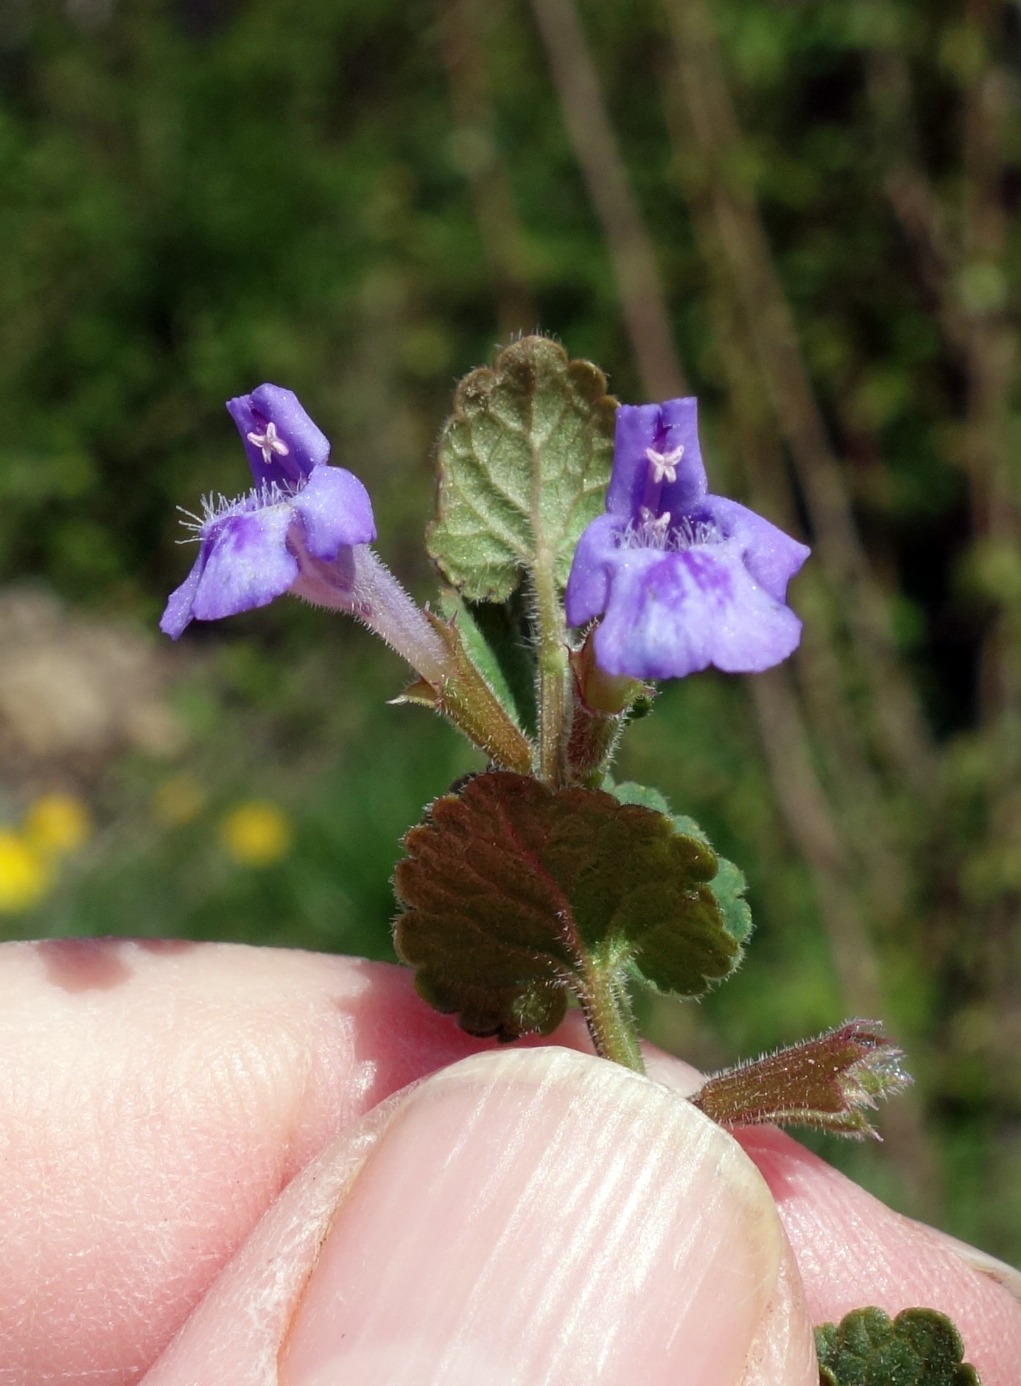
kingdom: Plantae
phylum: Tracheophyta
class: Magnoliopsida
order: Lamiales
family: Lamiaceae
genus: Glechoma
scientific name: Glechoma hederacea
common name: Korsknap
